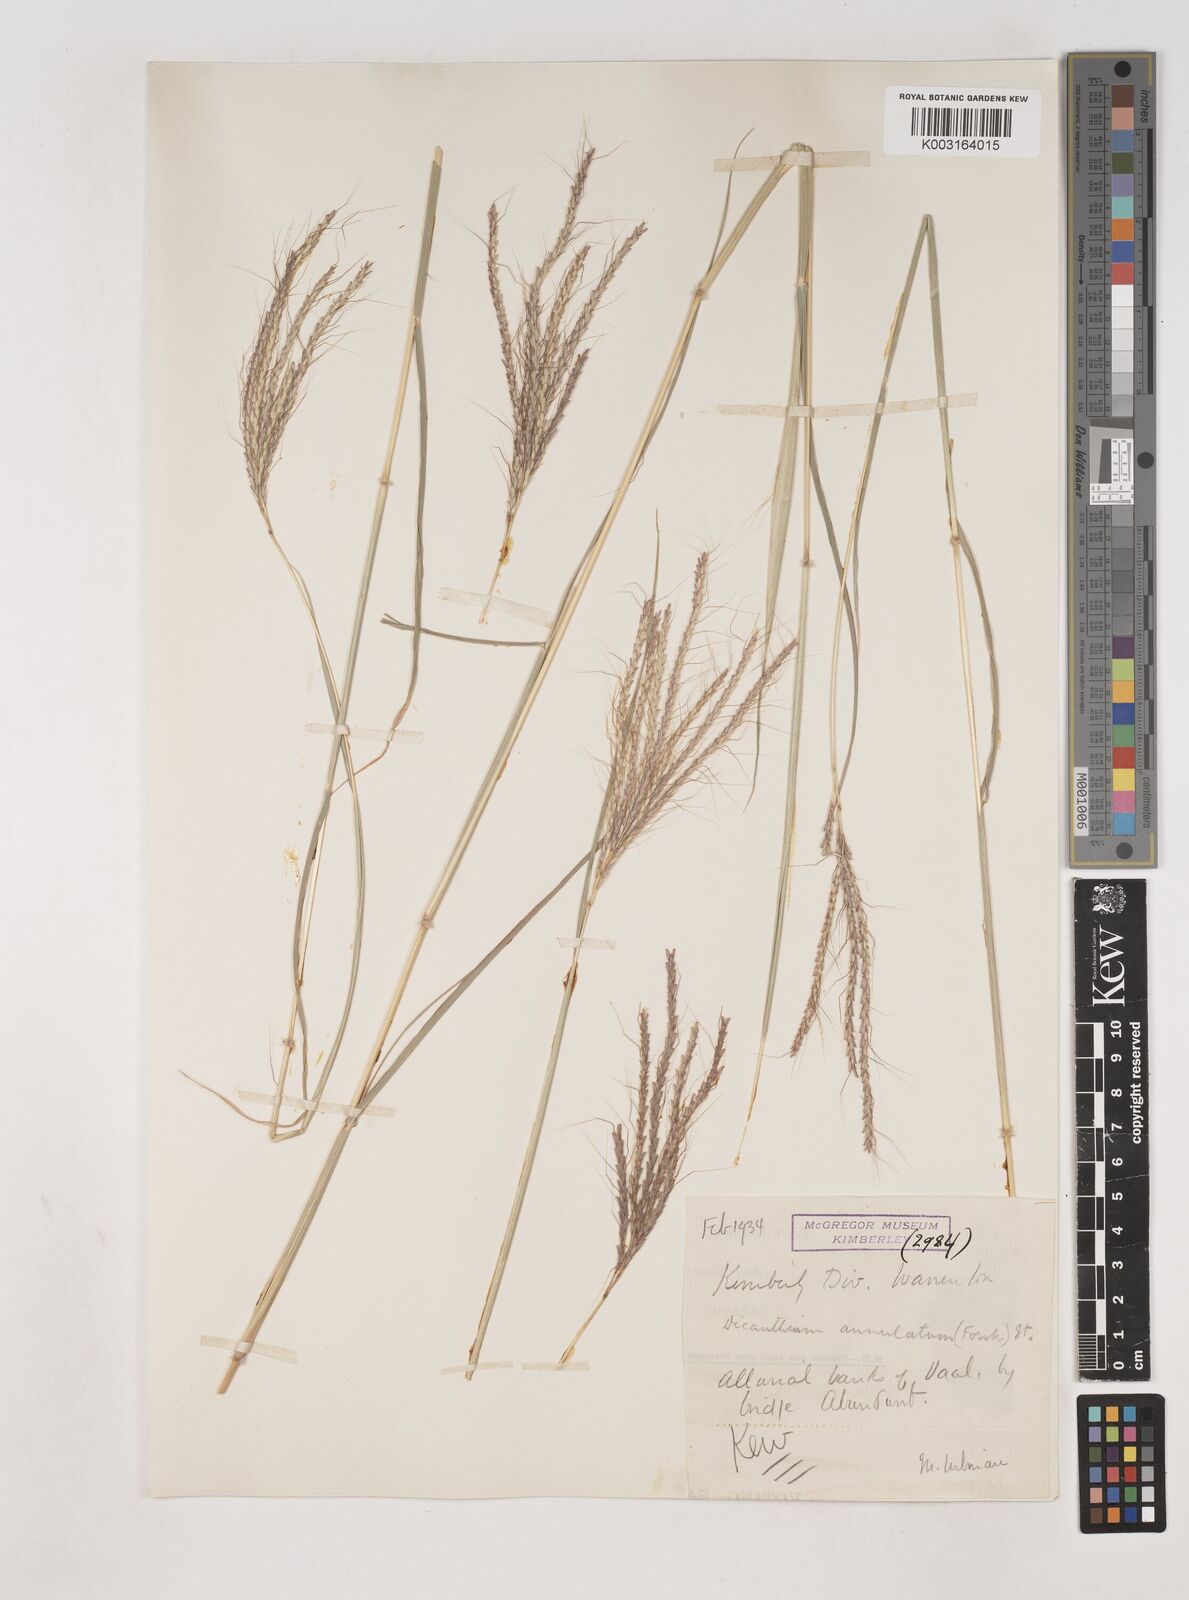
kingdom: Plantae
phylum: Tracheophyta
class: Liliopsida
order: Poales
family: Poaceae
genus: Dichanthium
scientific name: Dichanthium annulatum
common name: Kleberg's bluestem
